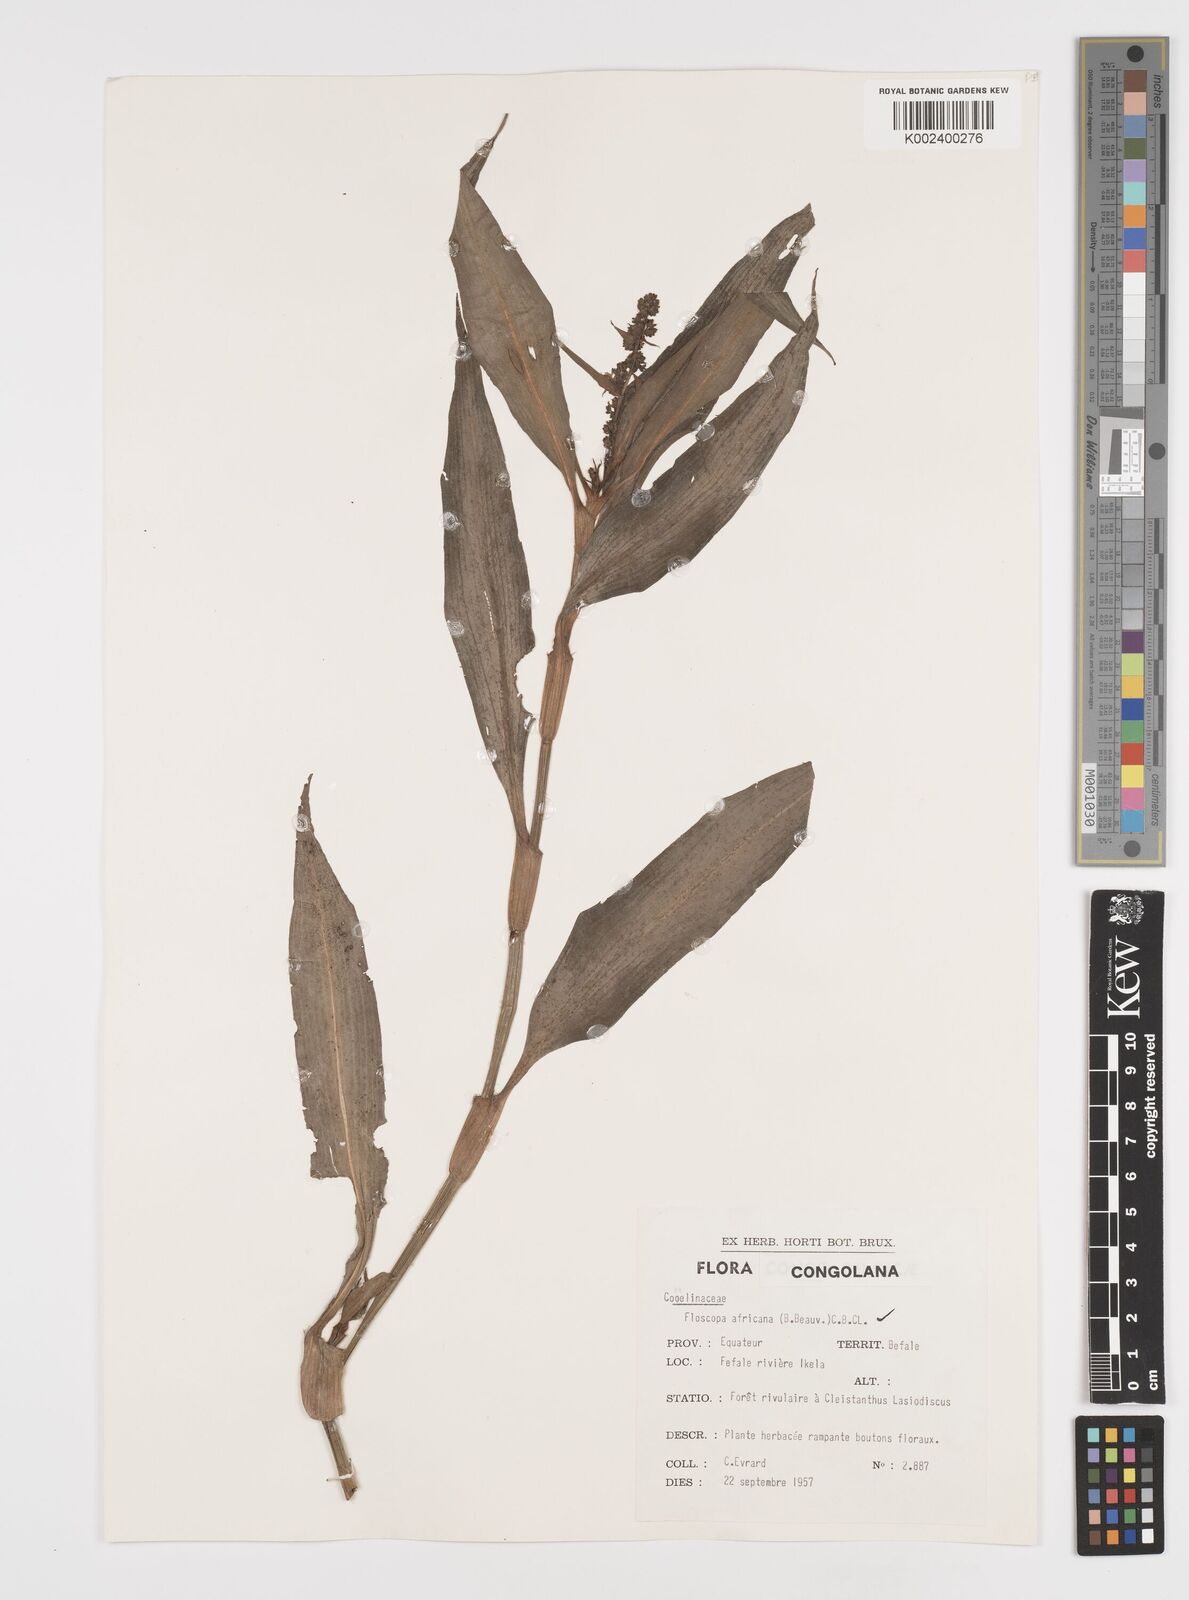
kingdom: Plantae
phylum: Tracheophyta
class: Liliopsida
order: Commelinales
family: Commelinaceae
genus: Floscopa
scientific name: Floscopa africana
